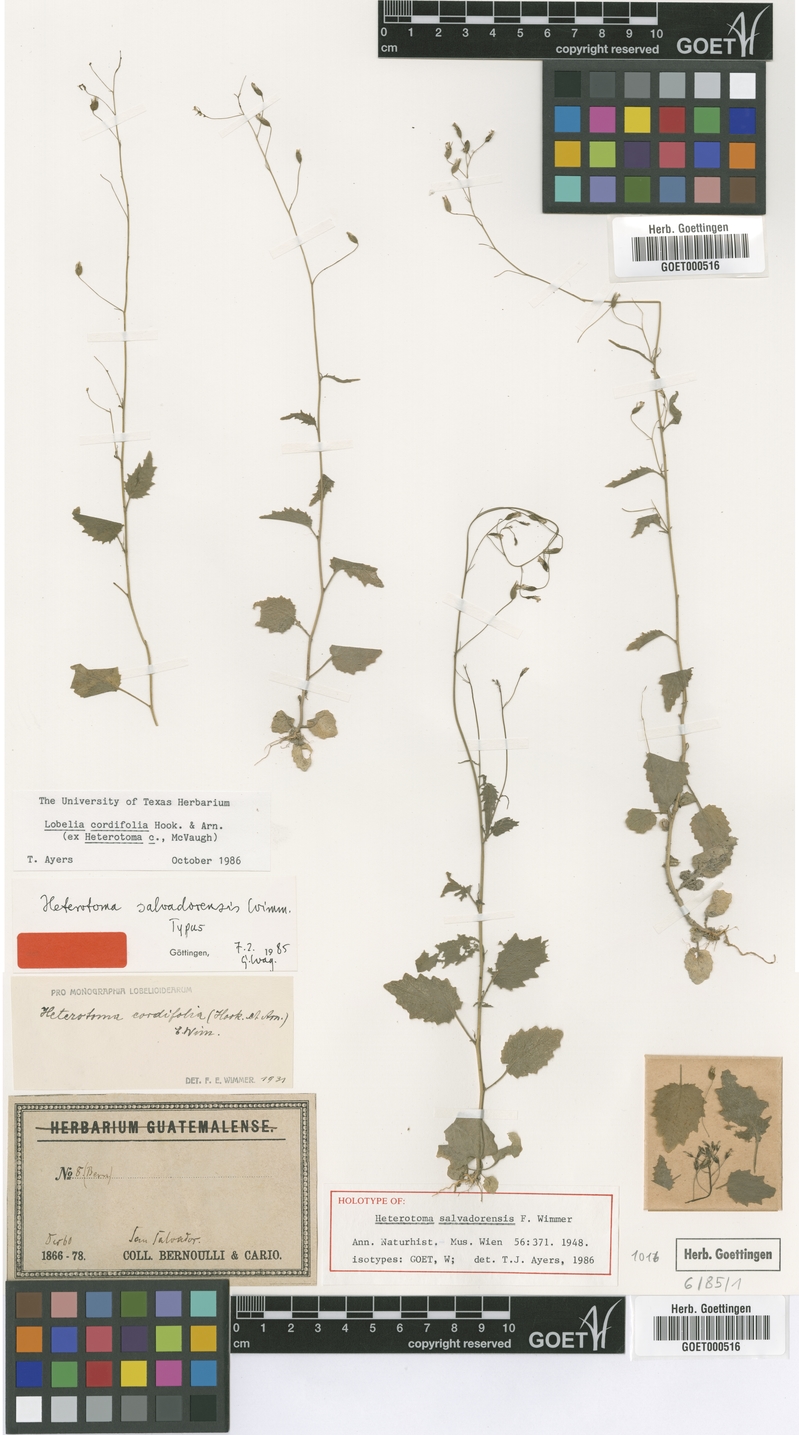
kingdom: Plantae
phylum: Tracheophyta
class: Magnoliopsida
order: Asterales
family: Campanulaceae
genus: Lobelia
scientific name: Lobelia cordifolia
